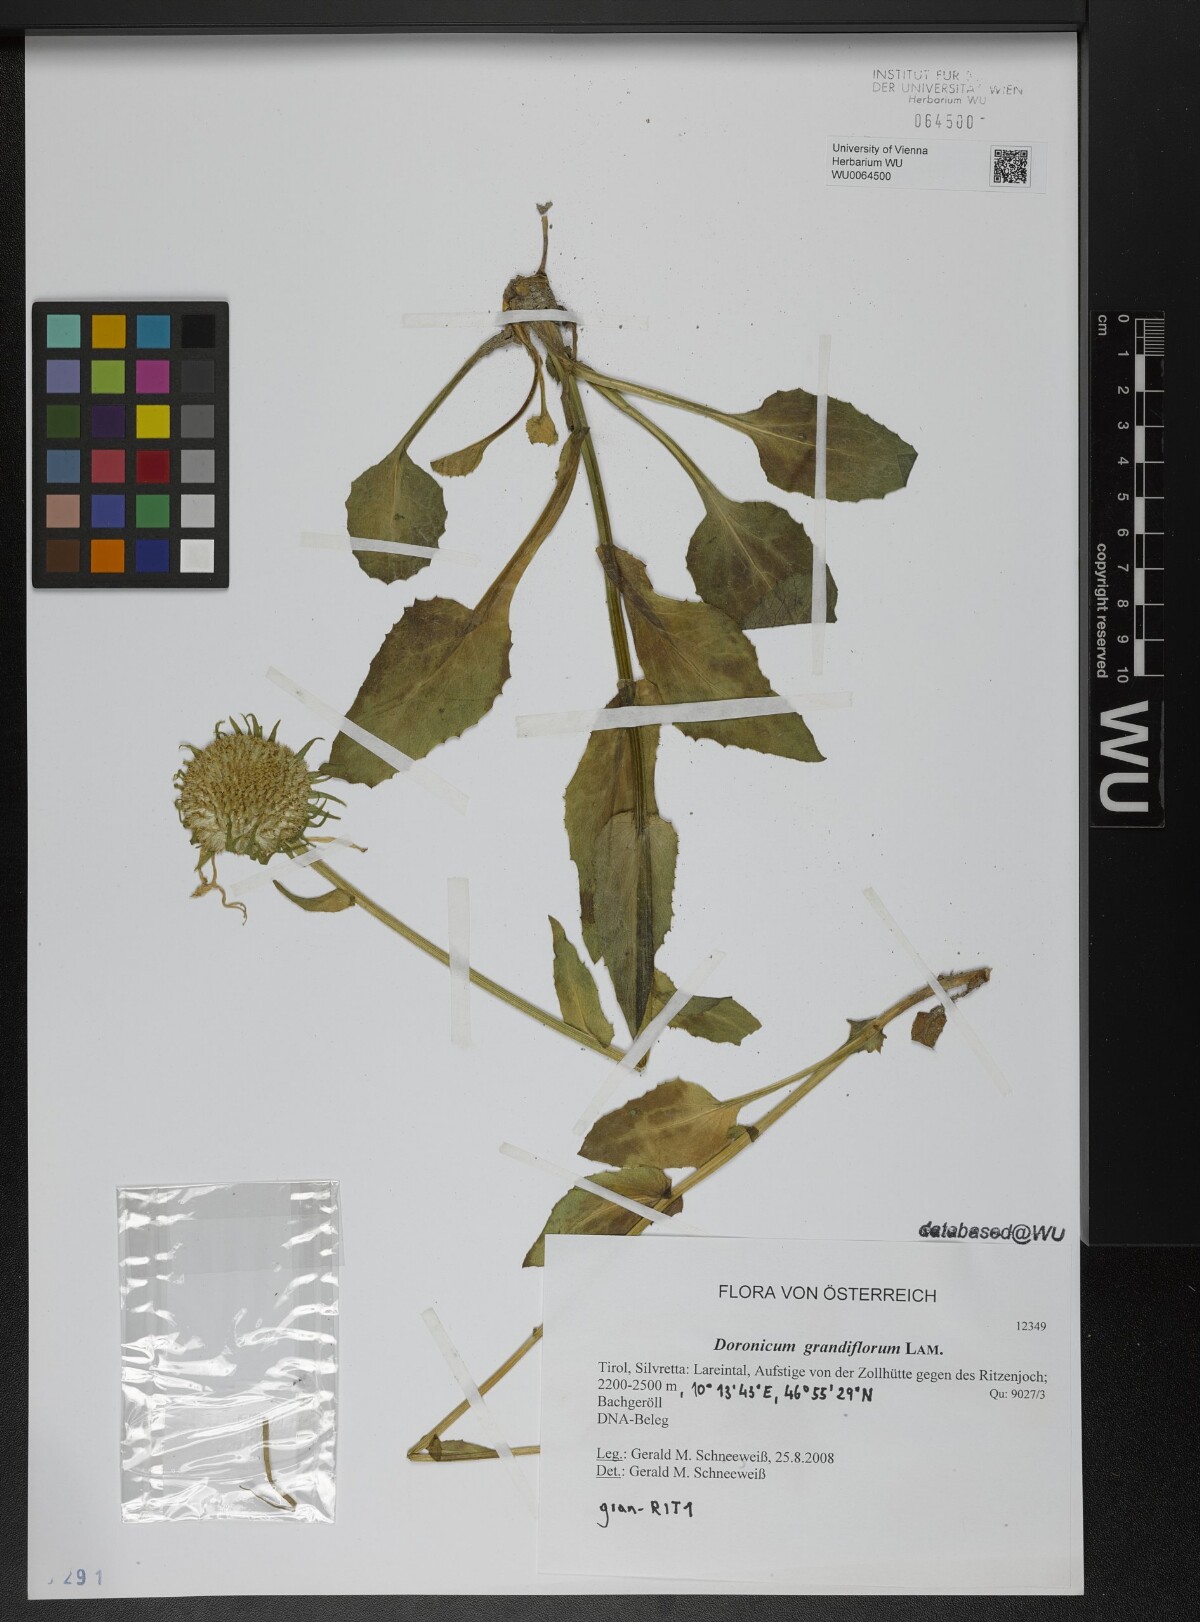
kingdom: Plantae
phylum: Tracheophyta
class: Magnoliopsida
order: Asterales
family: Asteraceae
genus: Doronicum
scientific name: Doronicum grandiflorum
